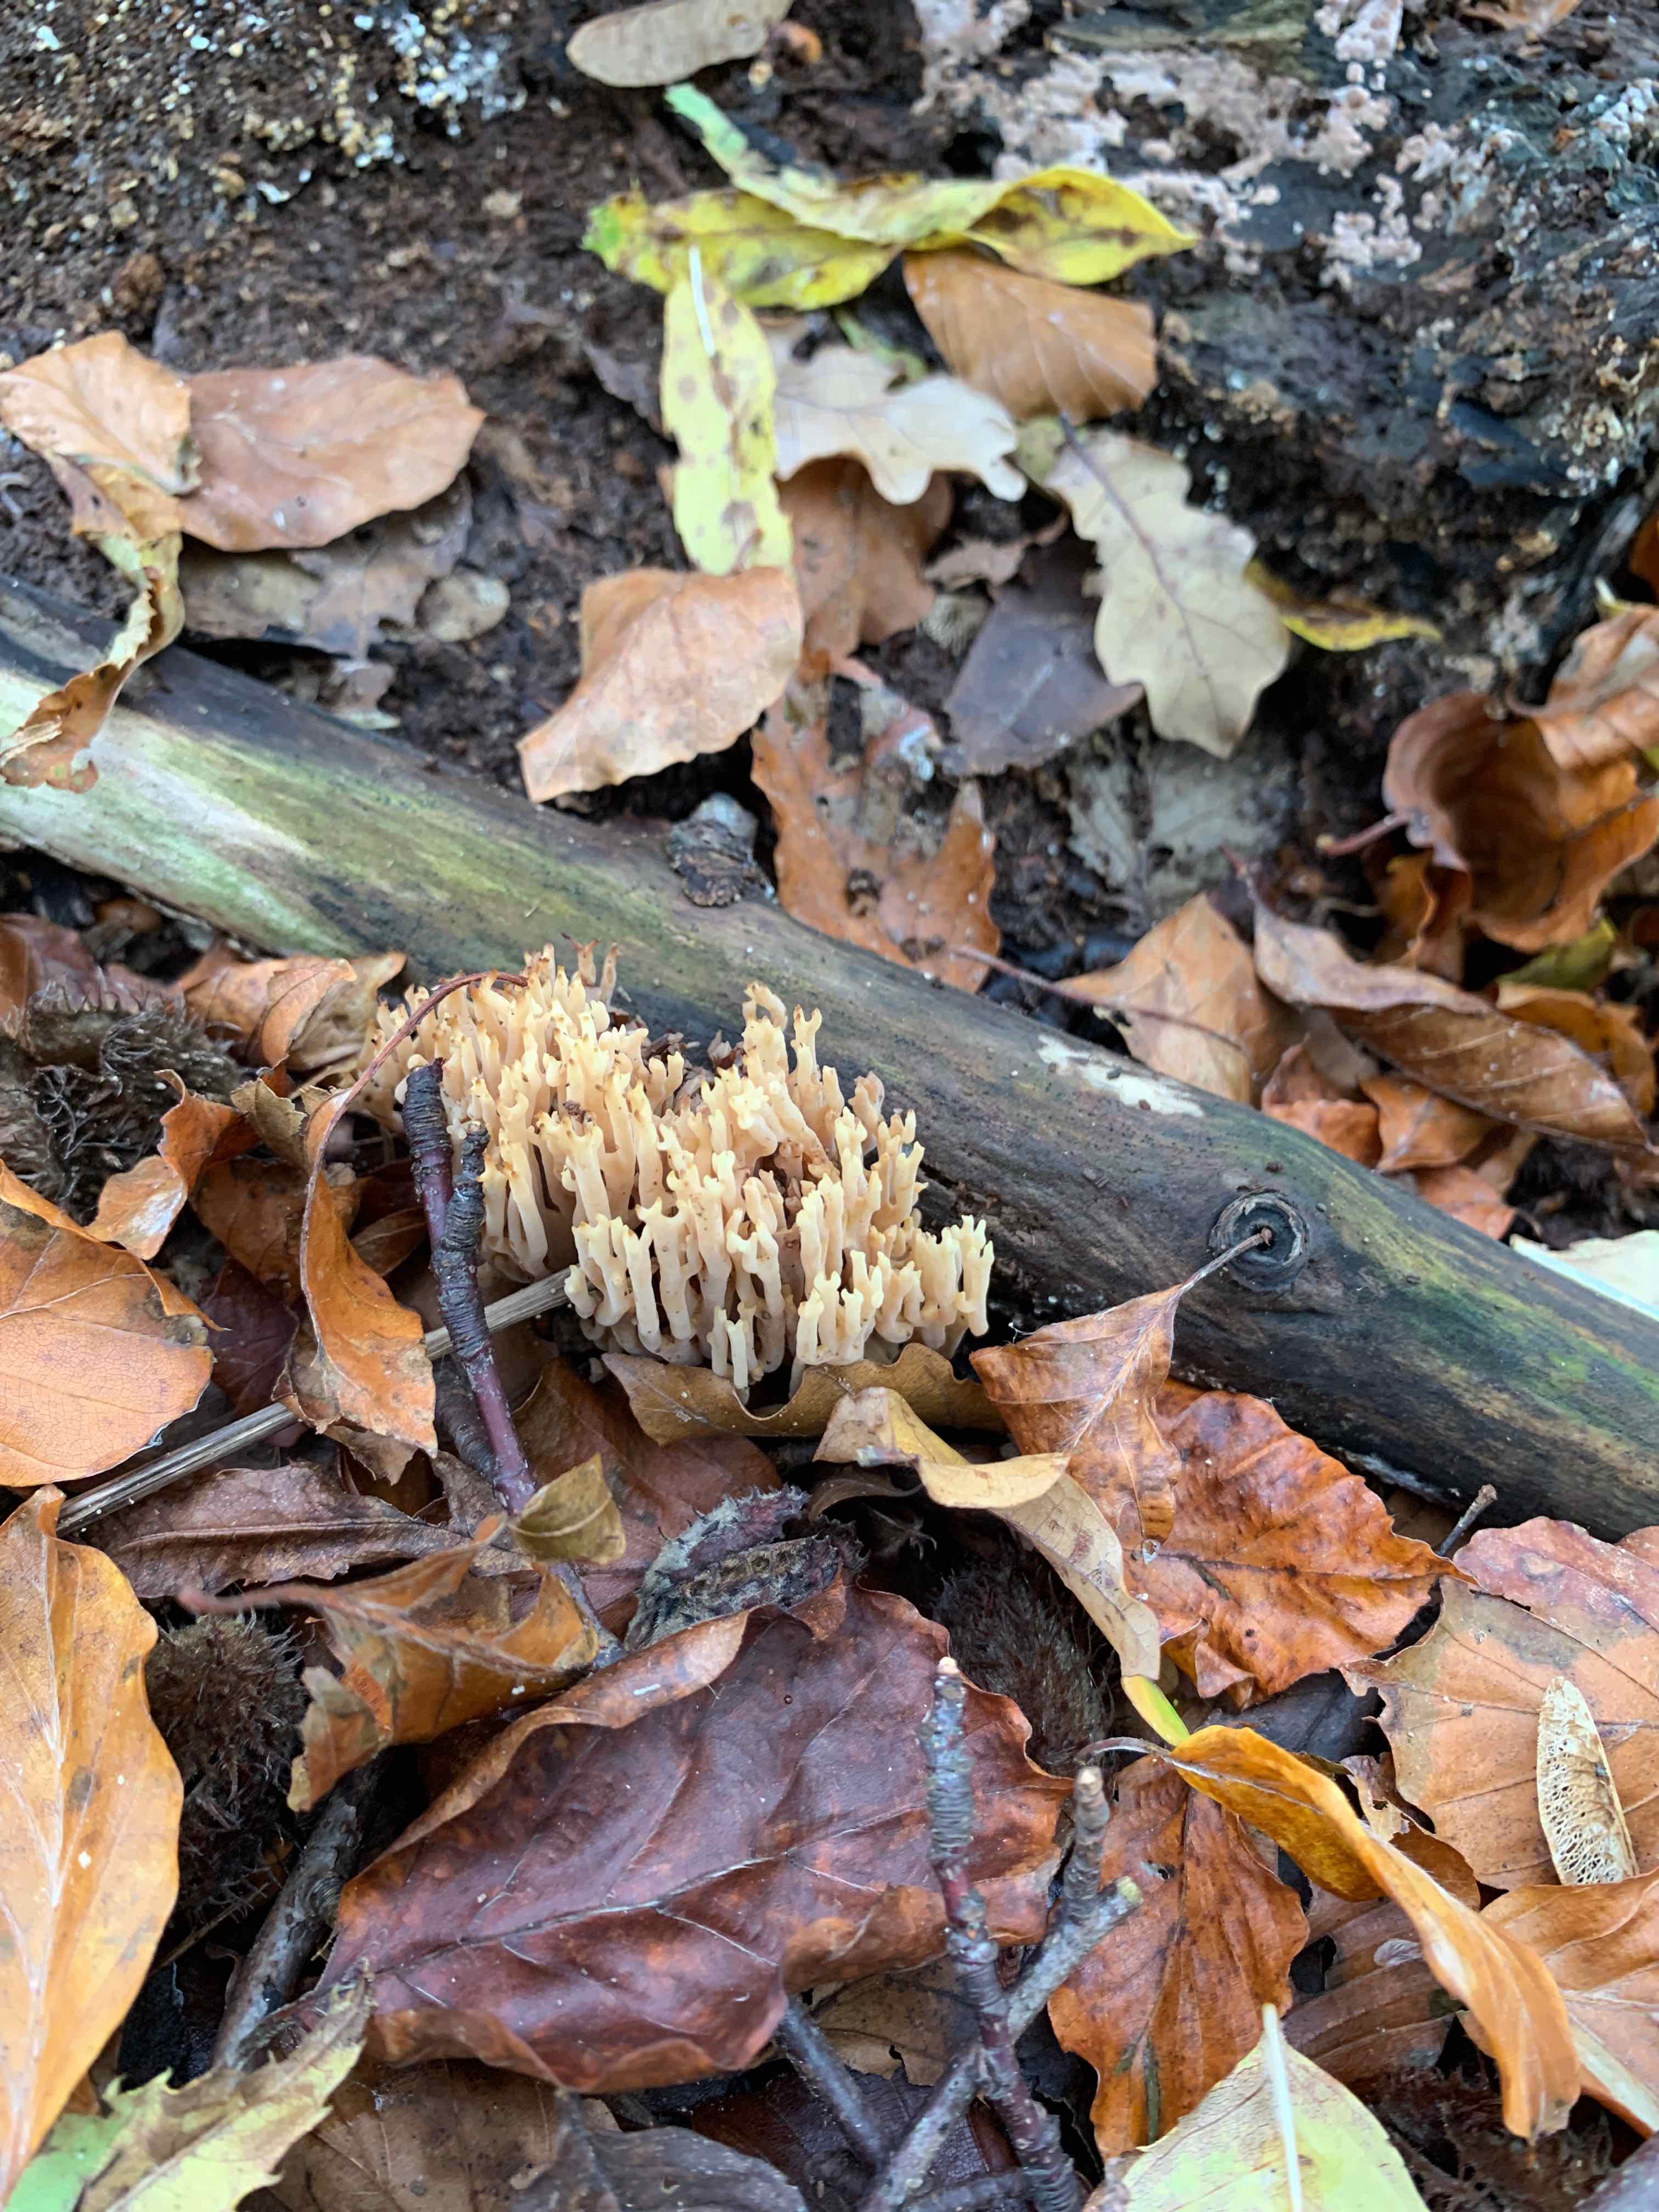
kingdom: Fungi
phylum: Basidiomycota
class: Agaricomycetes
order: Gomphales
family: Gomphaceae
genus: Ramaria
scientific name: Ramaria stricta
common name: rank koralsvamp
